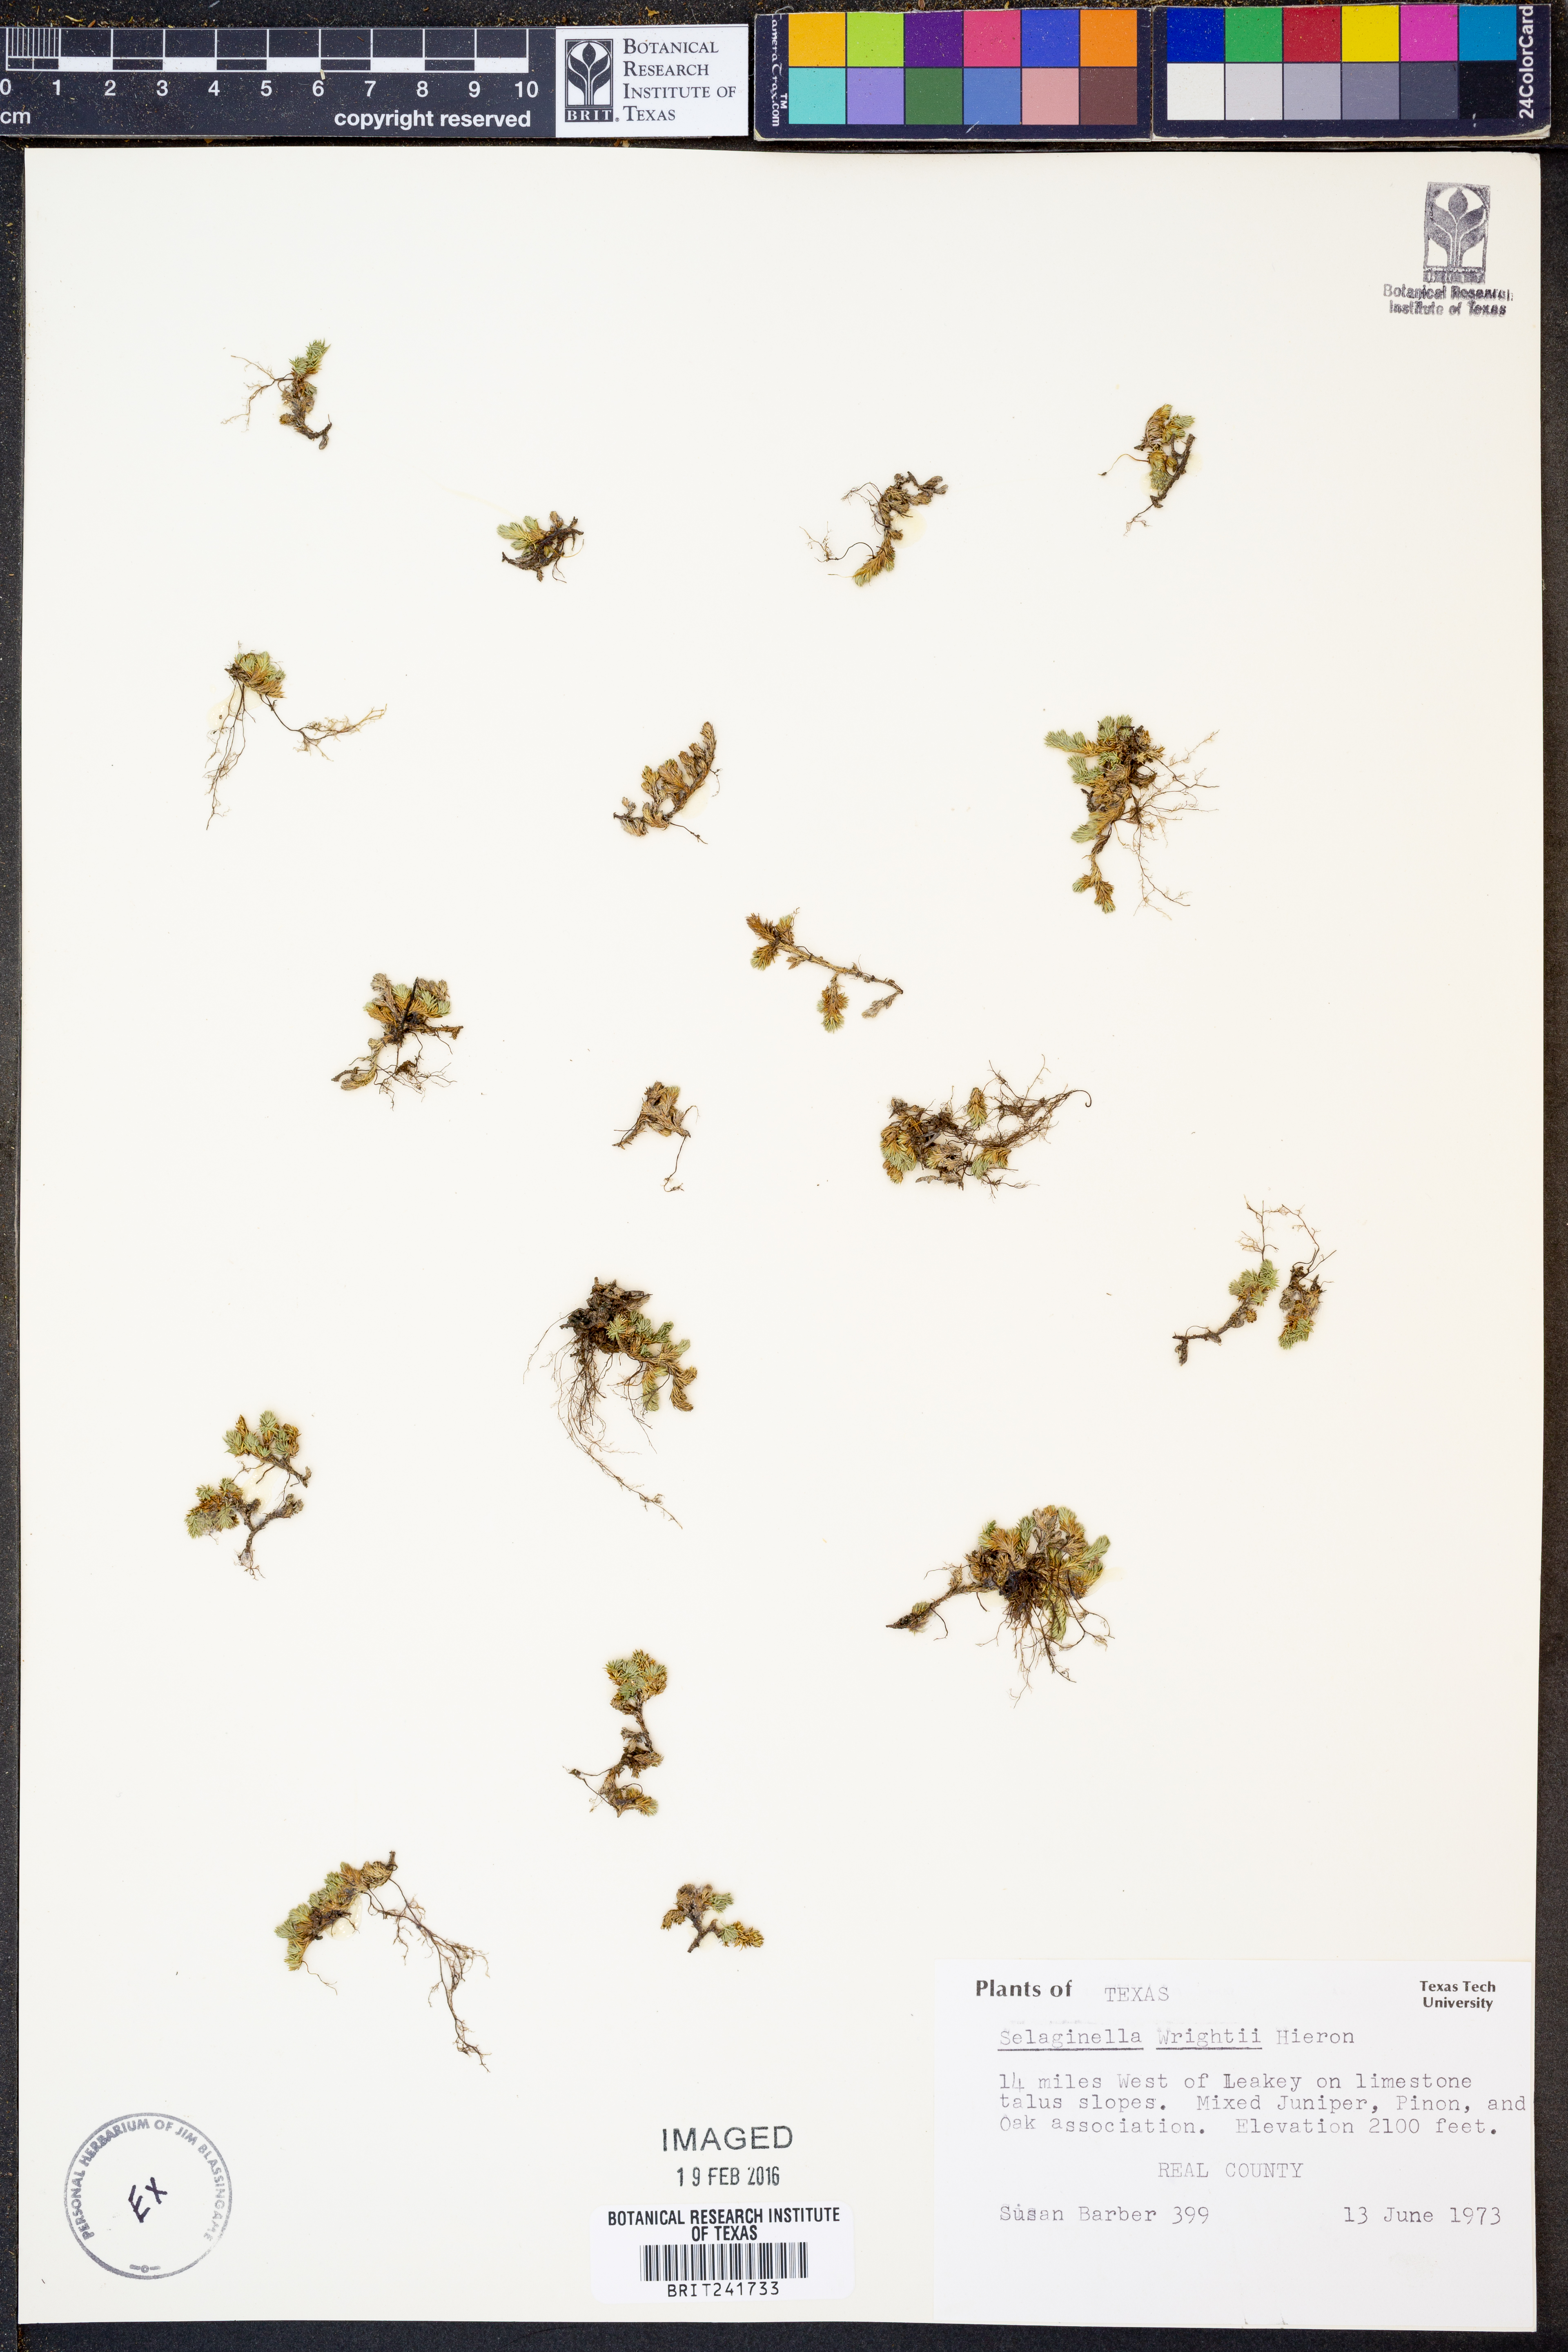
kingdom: Plantae
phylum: Tracheophyta
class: Lycopodiopsida
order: Selaginellales
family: Selaginellaceae
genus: Selaginella
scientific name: Selaginella wrightii
